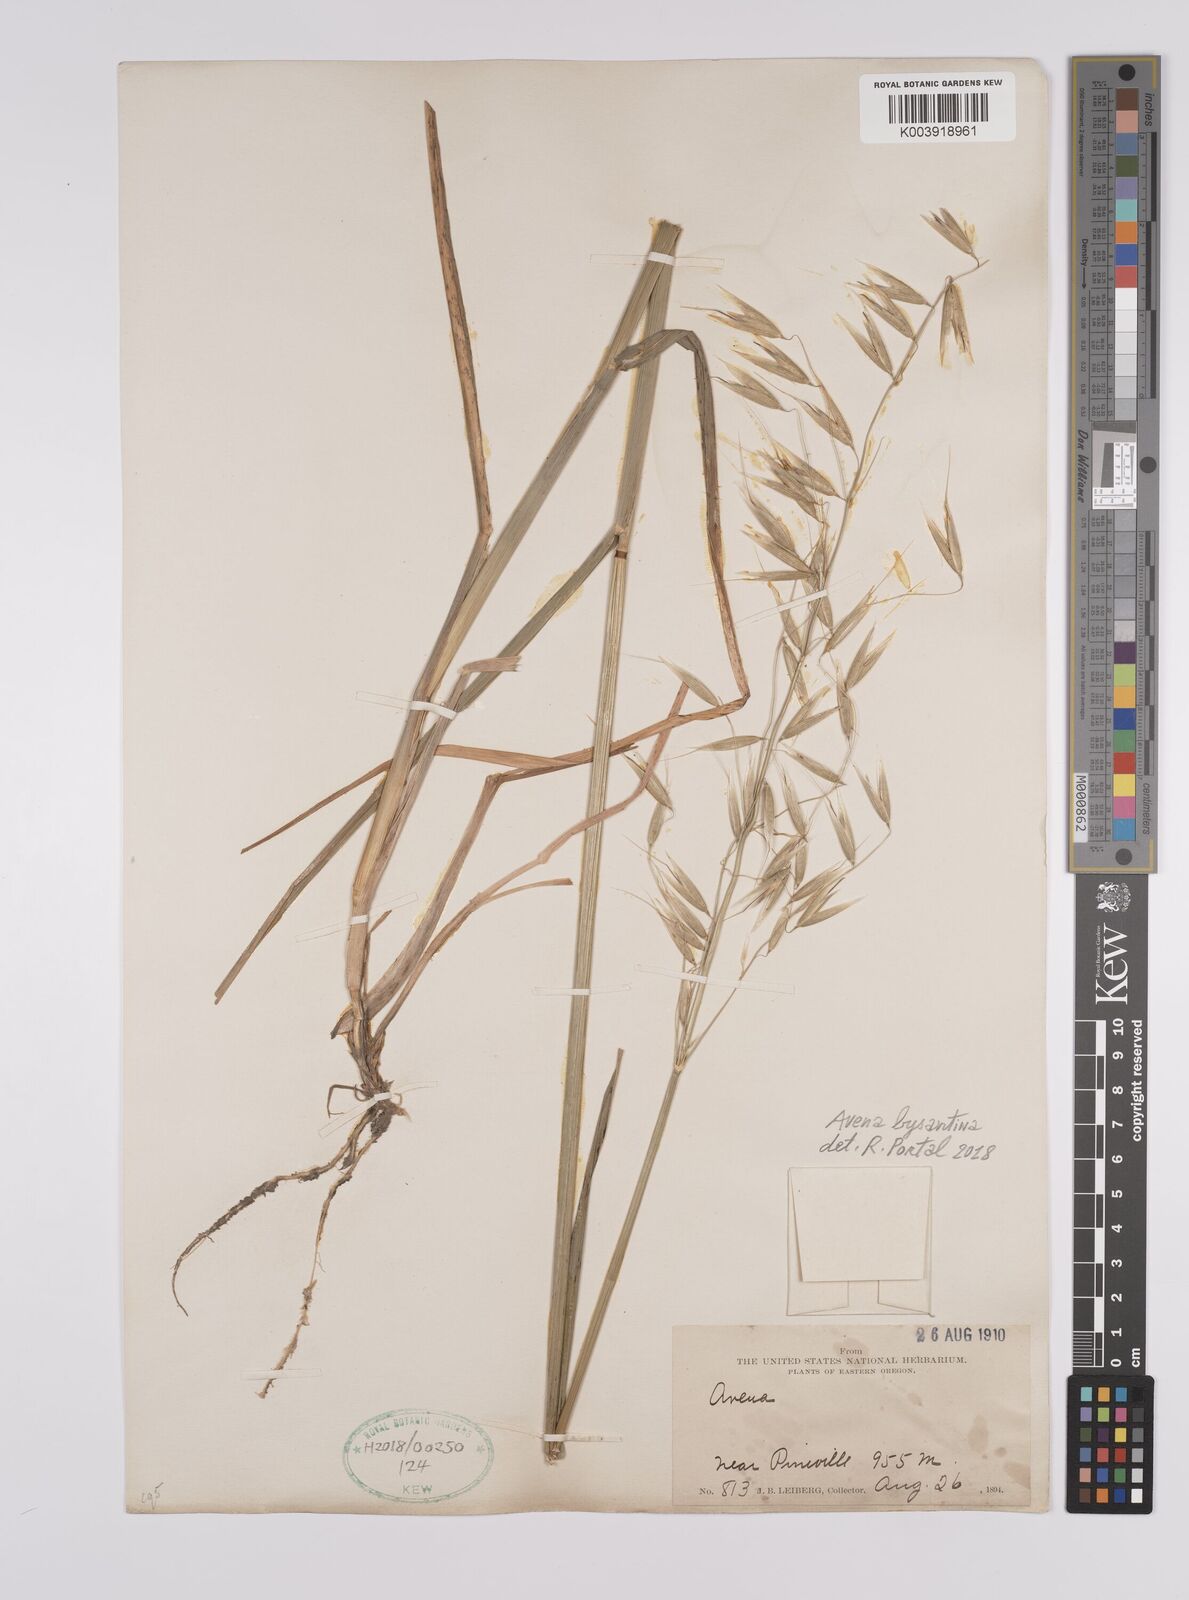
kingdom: Plantae
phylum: Tracheophyta
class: Liliopsida
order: Poales
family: Poaceae
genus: Avena
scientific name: Avena byzantina
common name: Algerian oat
